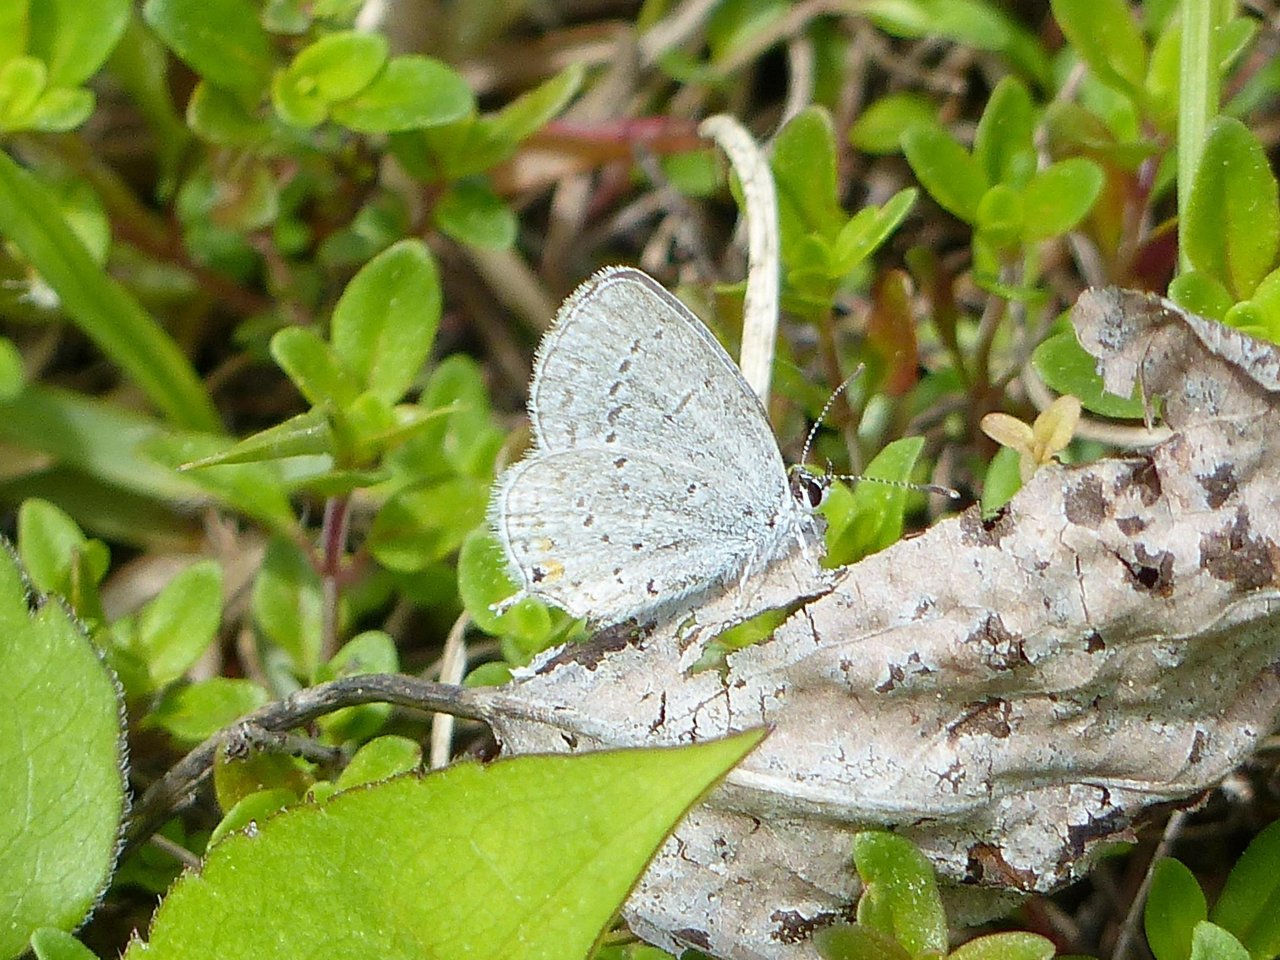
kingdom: Animalia
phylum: Arthropoda
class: Insecta
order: Lepidoptera
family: Lycaenidae
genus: Elkalyce
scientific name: Elkalyce comyntas
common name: Eastern Tailed-Blue
